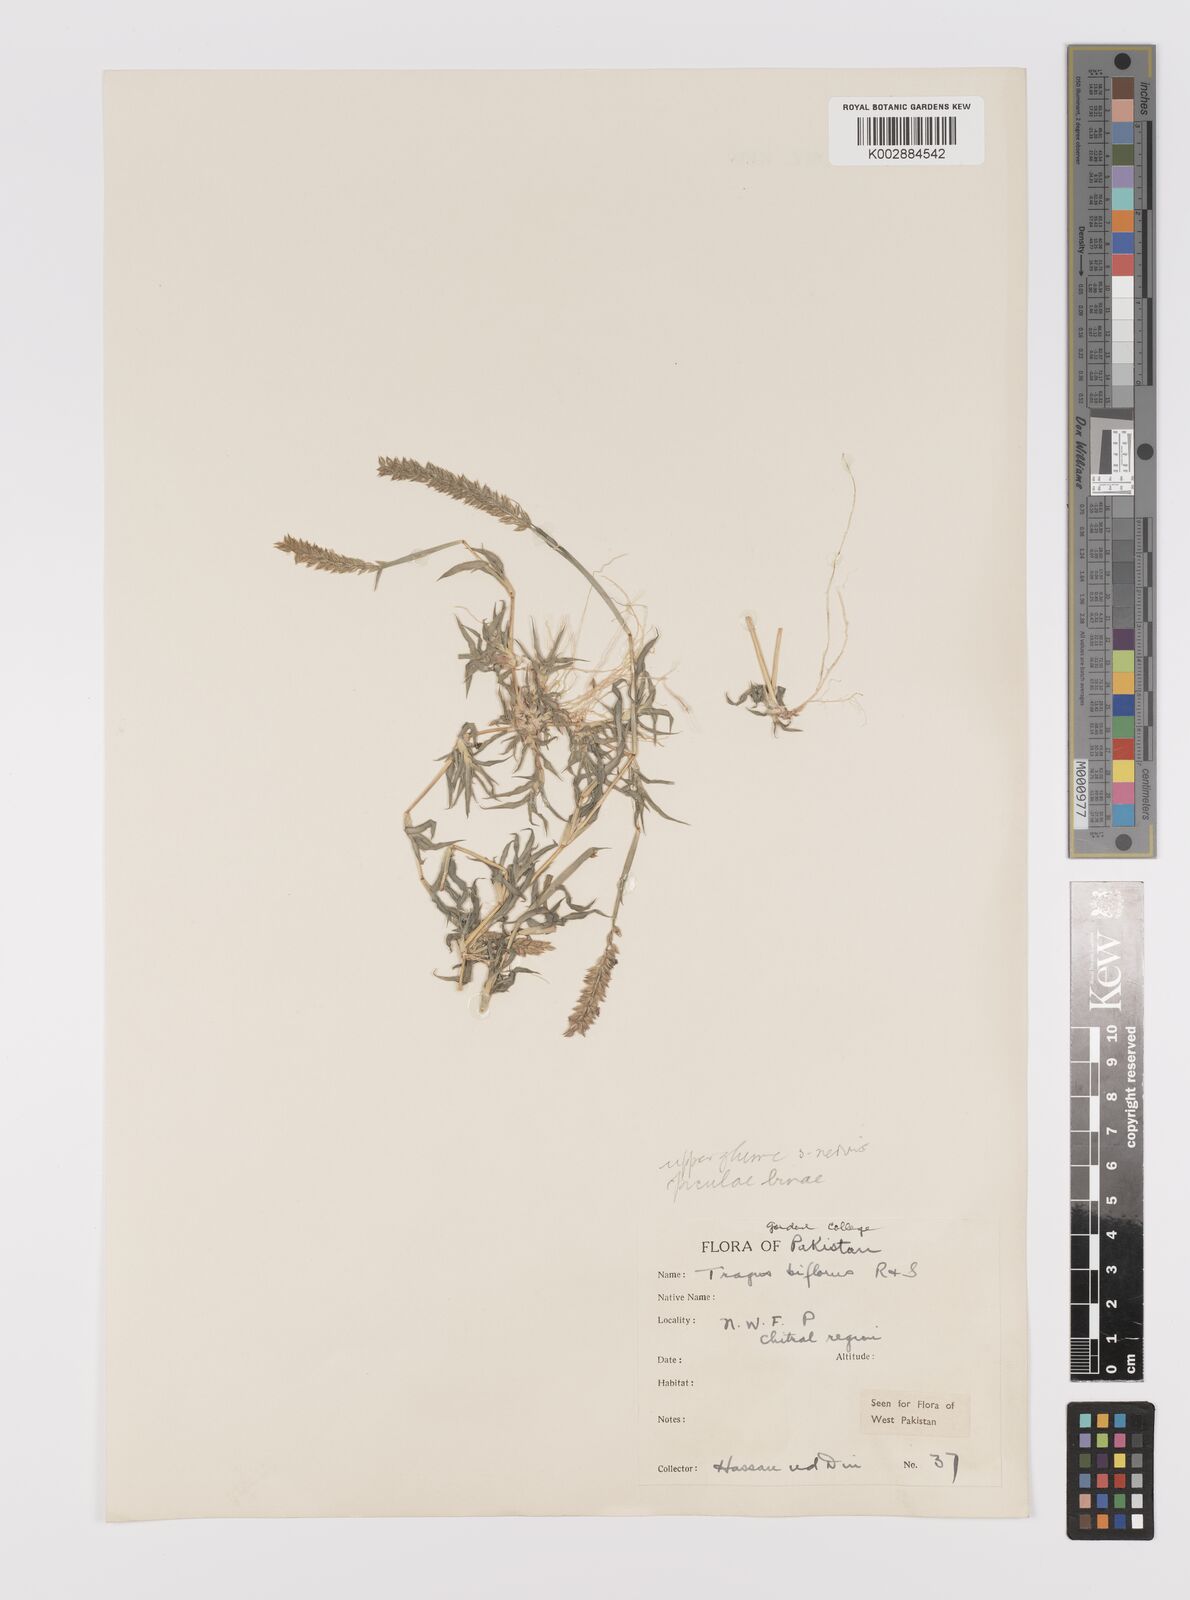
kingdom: Plantae
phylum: Tracheophyta
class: Liliopsida
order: Poales
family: Poaceae
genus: Tragus
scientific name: Tragus mongolorum
